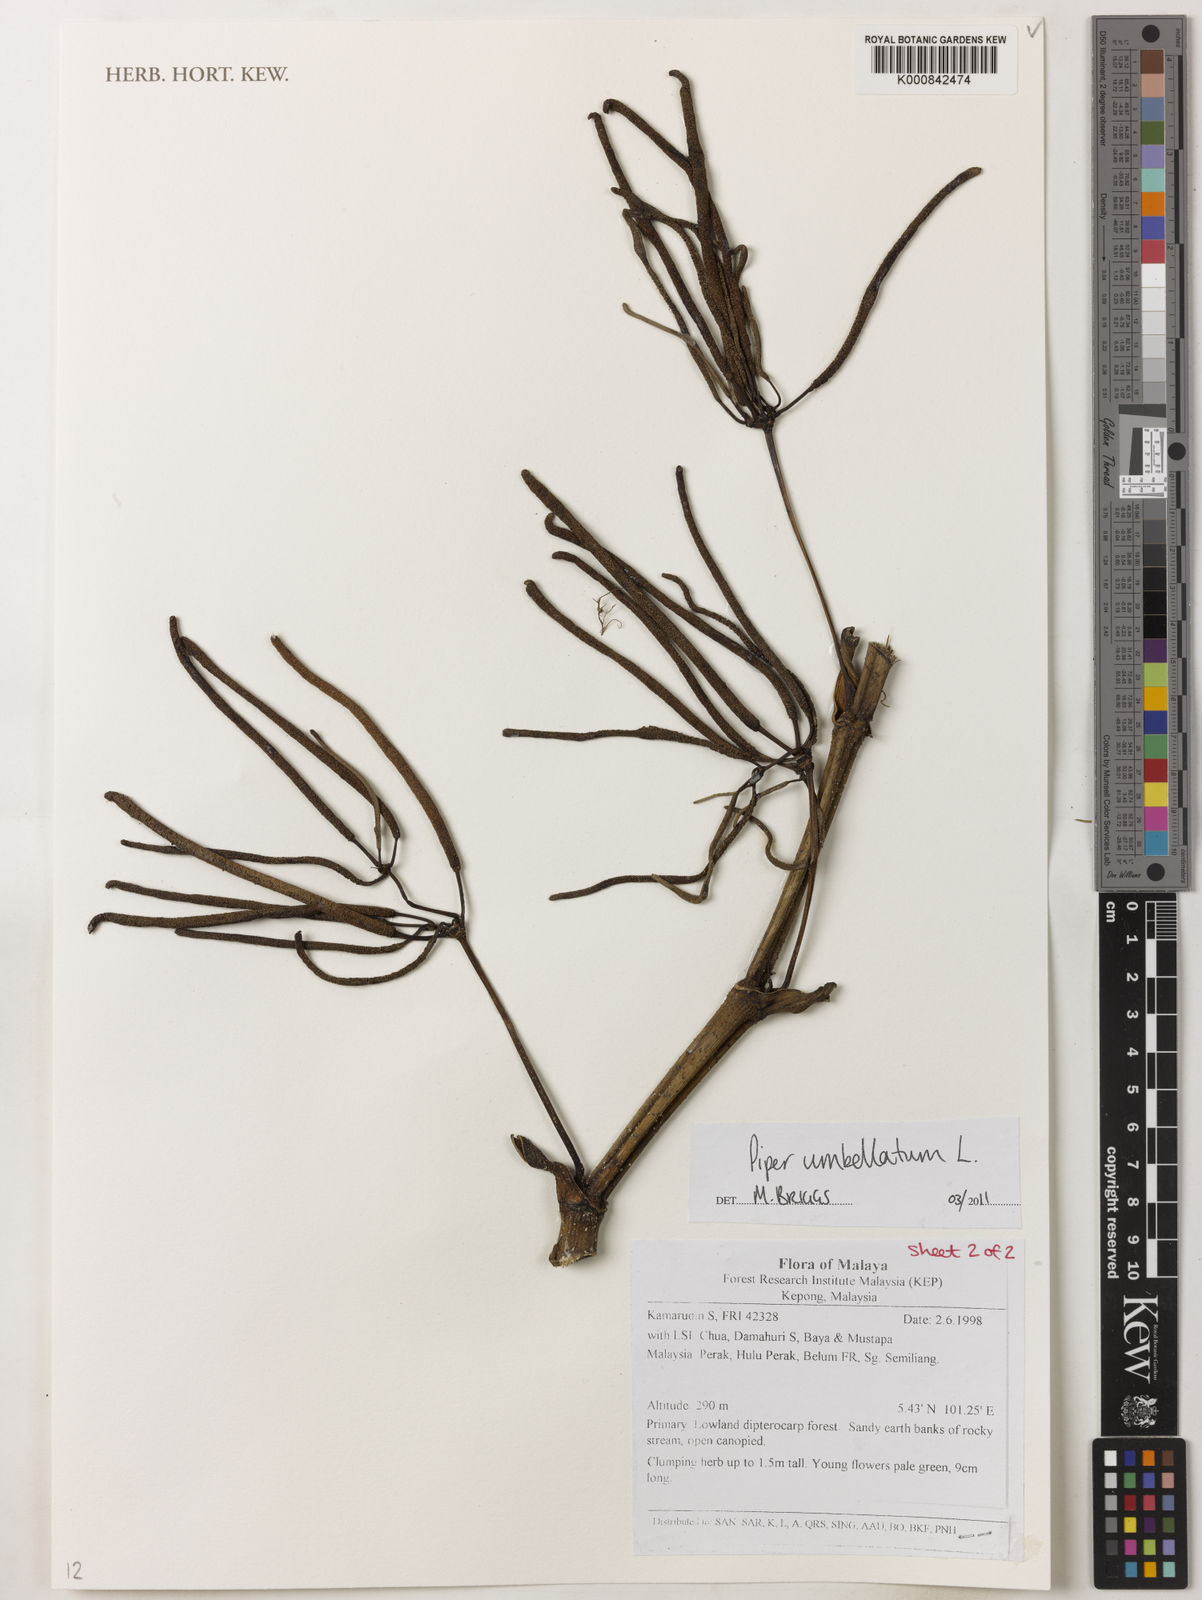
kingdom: Plantae
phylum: Tracheophyta
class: Magnoliopsida
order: Piperales
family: Piperaceae
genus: Piper
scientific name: Piper umbellatum
